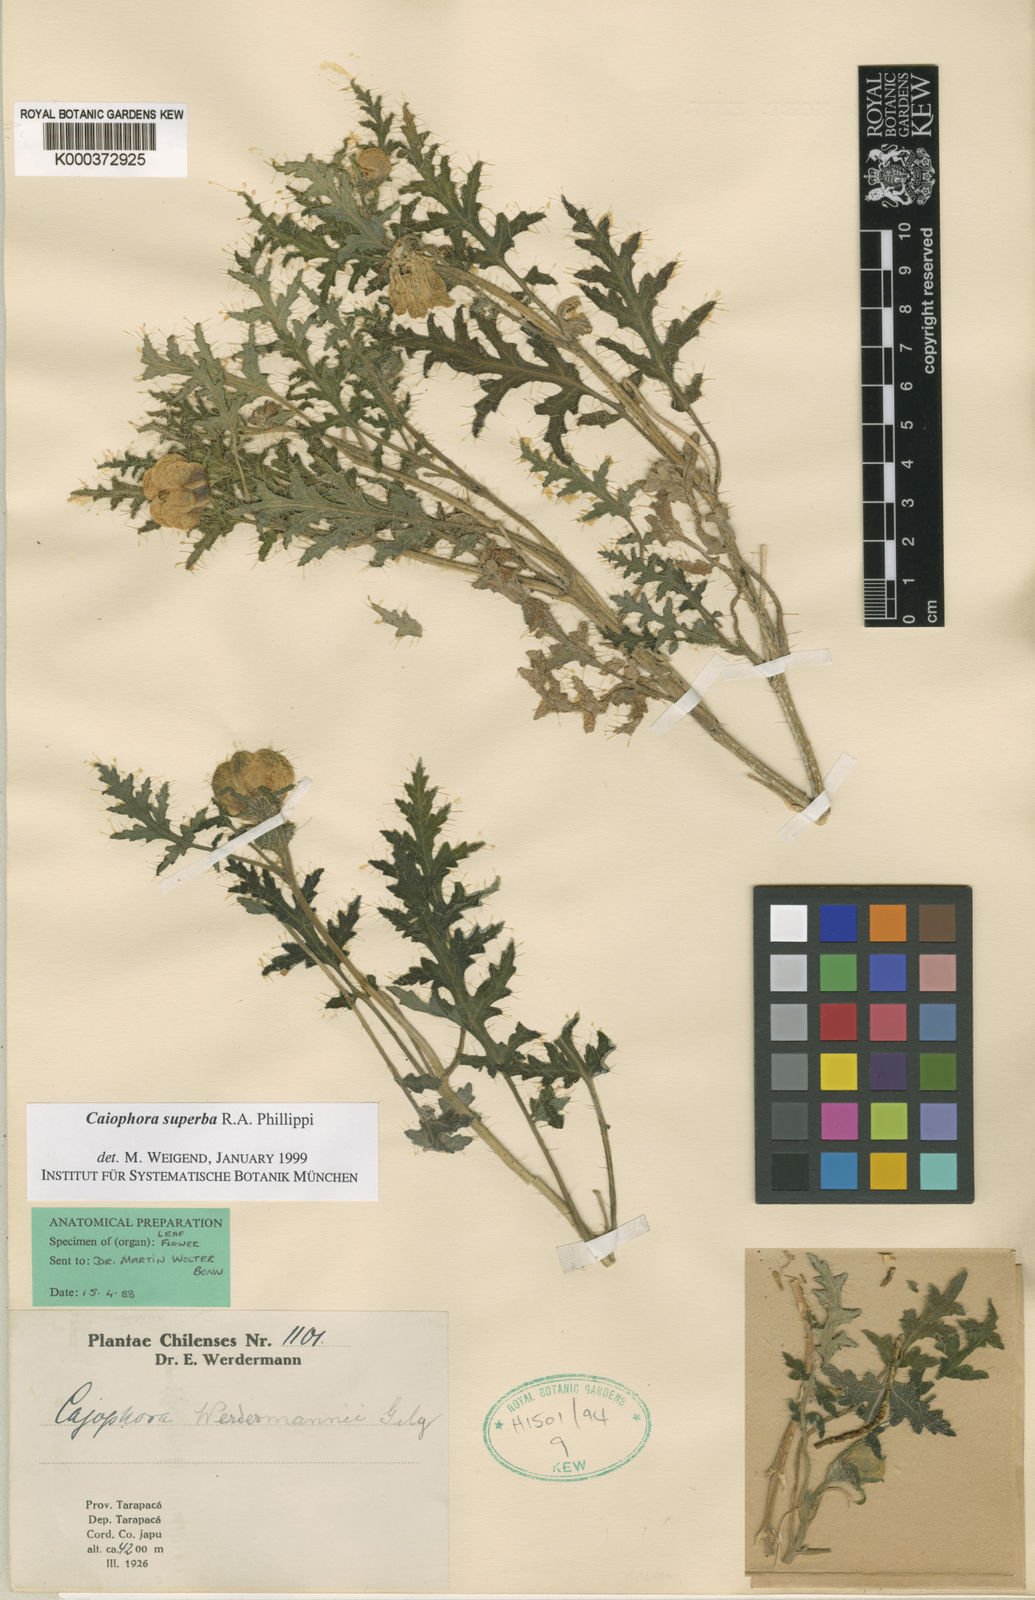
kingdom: Plantae
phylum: Tracheophyta
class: Magnoliopsida
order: Cornales
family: Loasaceae
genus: Caiophora
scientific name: Caiophora chuquitensis
